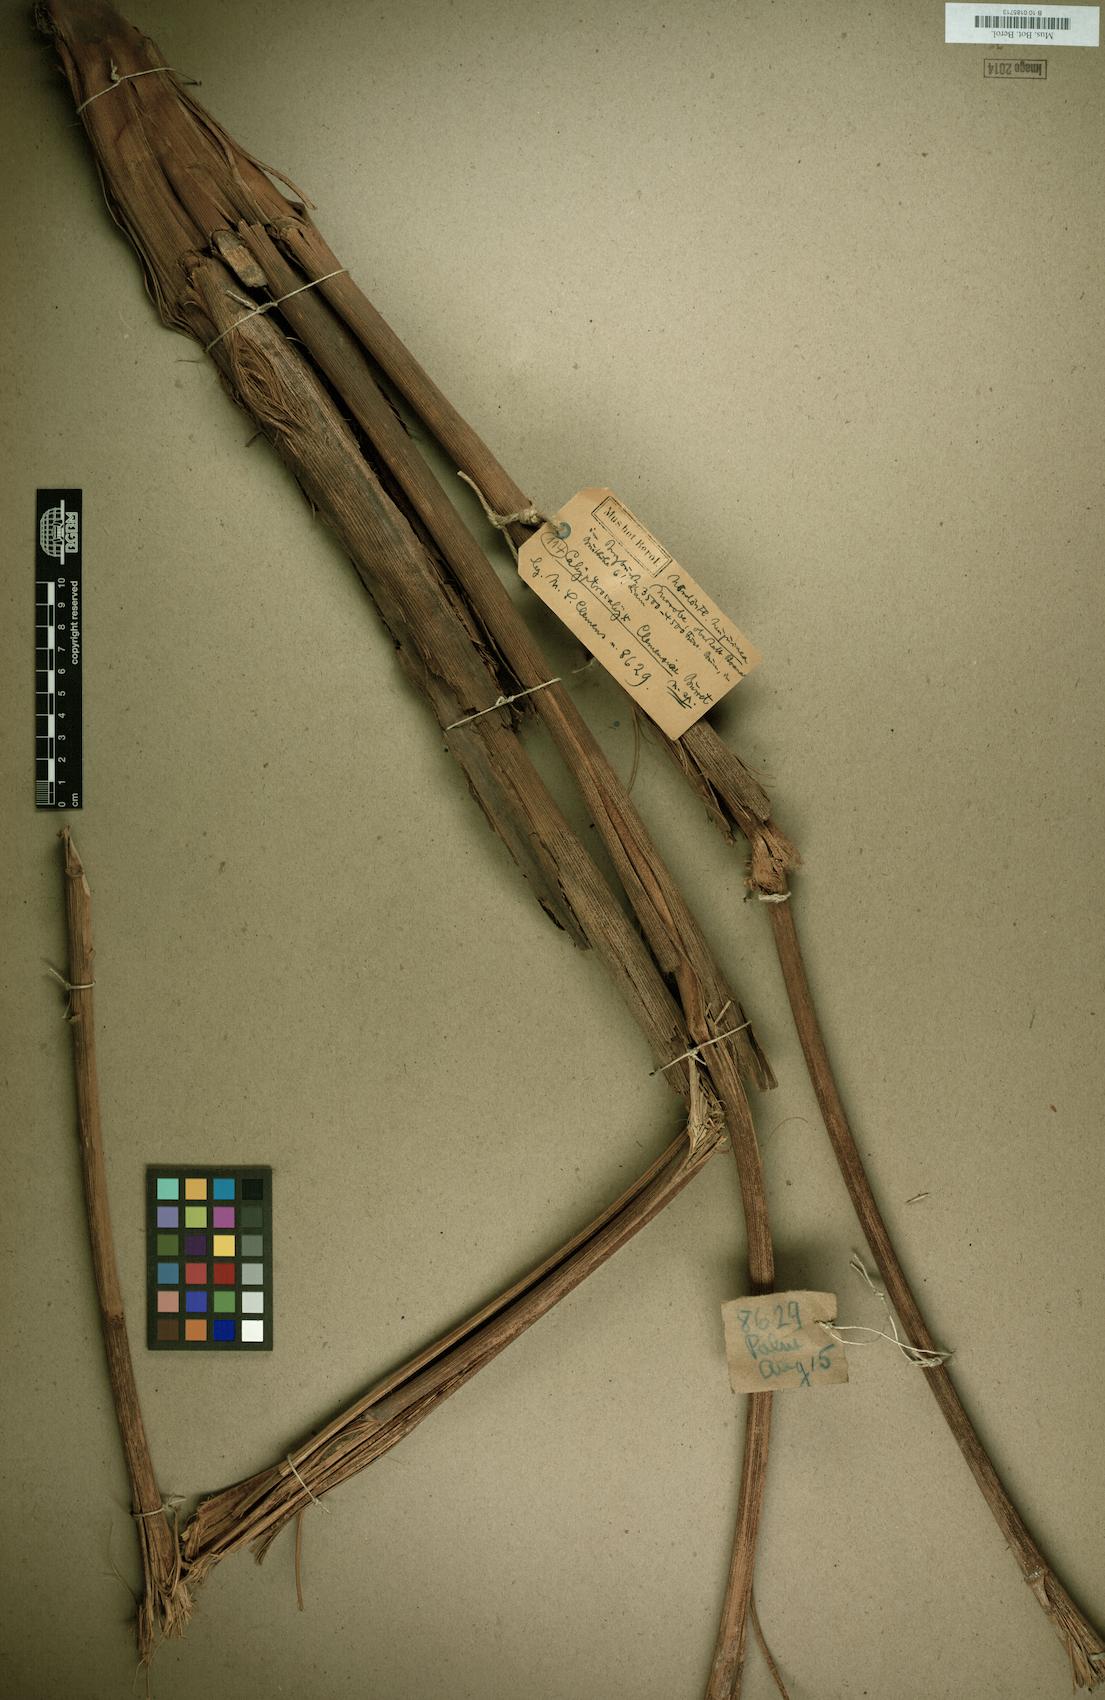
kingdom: Plantae
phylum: Tracheophyta
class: Liliopsida
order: Arecales
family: Arecaceae
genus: Calyptrocalyx
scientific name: Calyptrocalyx albertisianus
